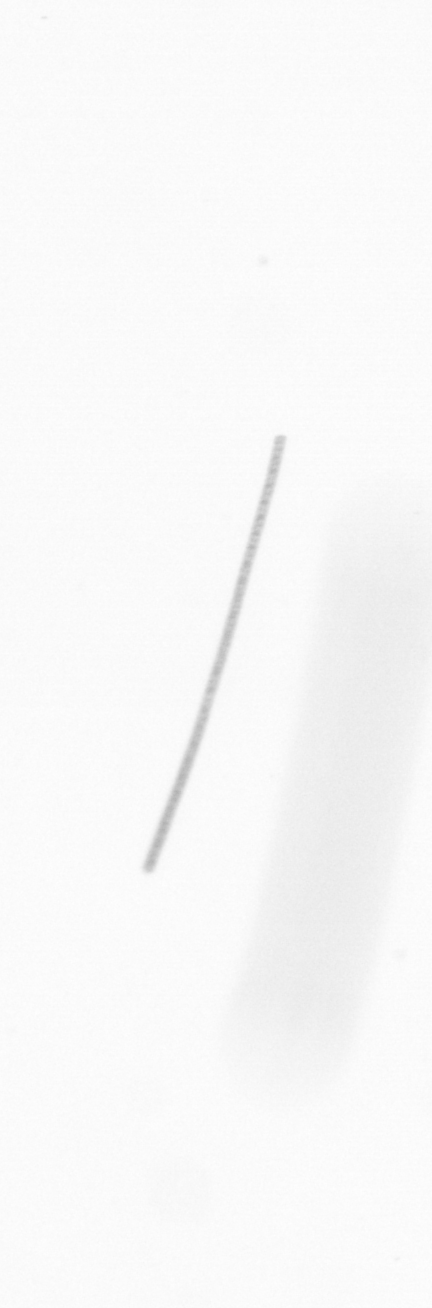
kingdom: Chromista
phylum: Ochrophyta
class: Bacillariophyceae
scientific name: Bacillariophyceae
